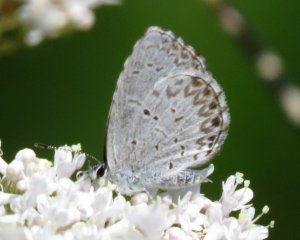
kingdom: Animalia
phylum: Arthropoda
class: Insecta
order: Lepidoptera
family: Lycaenidae
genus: Celastrina
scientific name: Celastrina serotina
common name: Cherry Gall Azure
